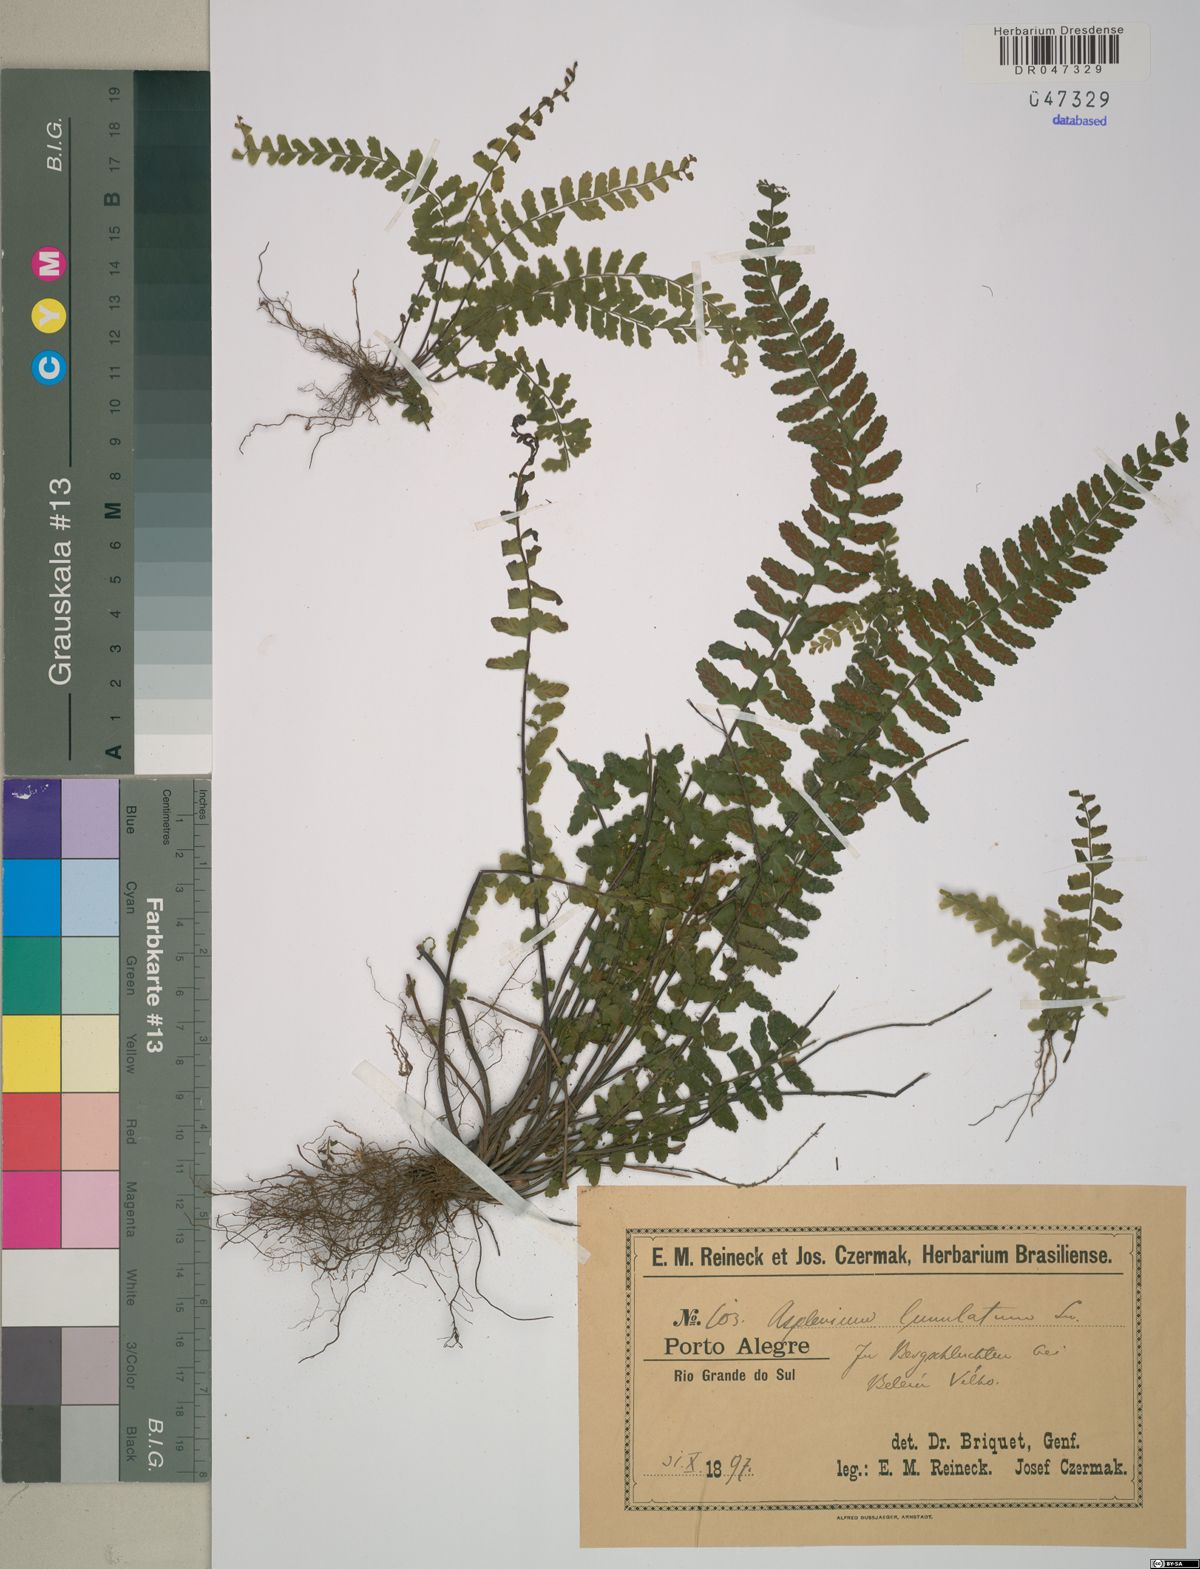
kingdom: Plantae
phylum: Tracheophyta
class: Polypodiopsida
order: Polypodiales
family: Aspleniaceae
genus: Asplenium
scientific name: Asplenium lunulatum
